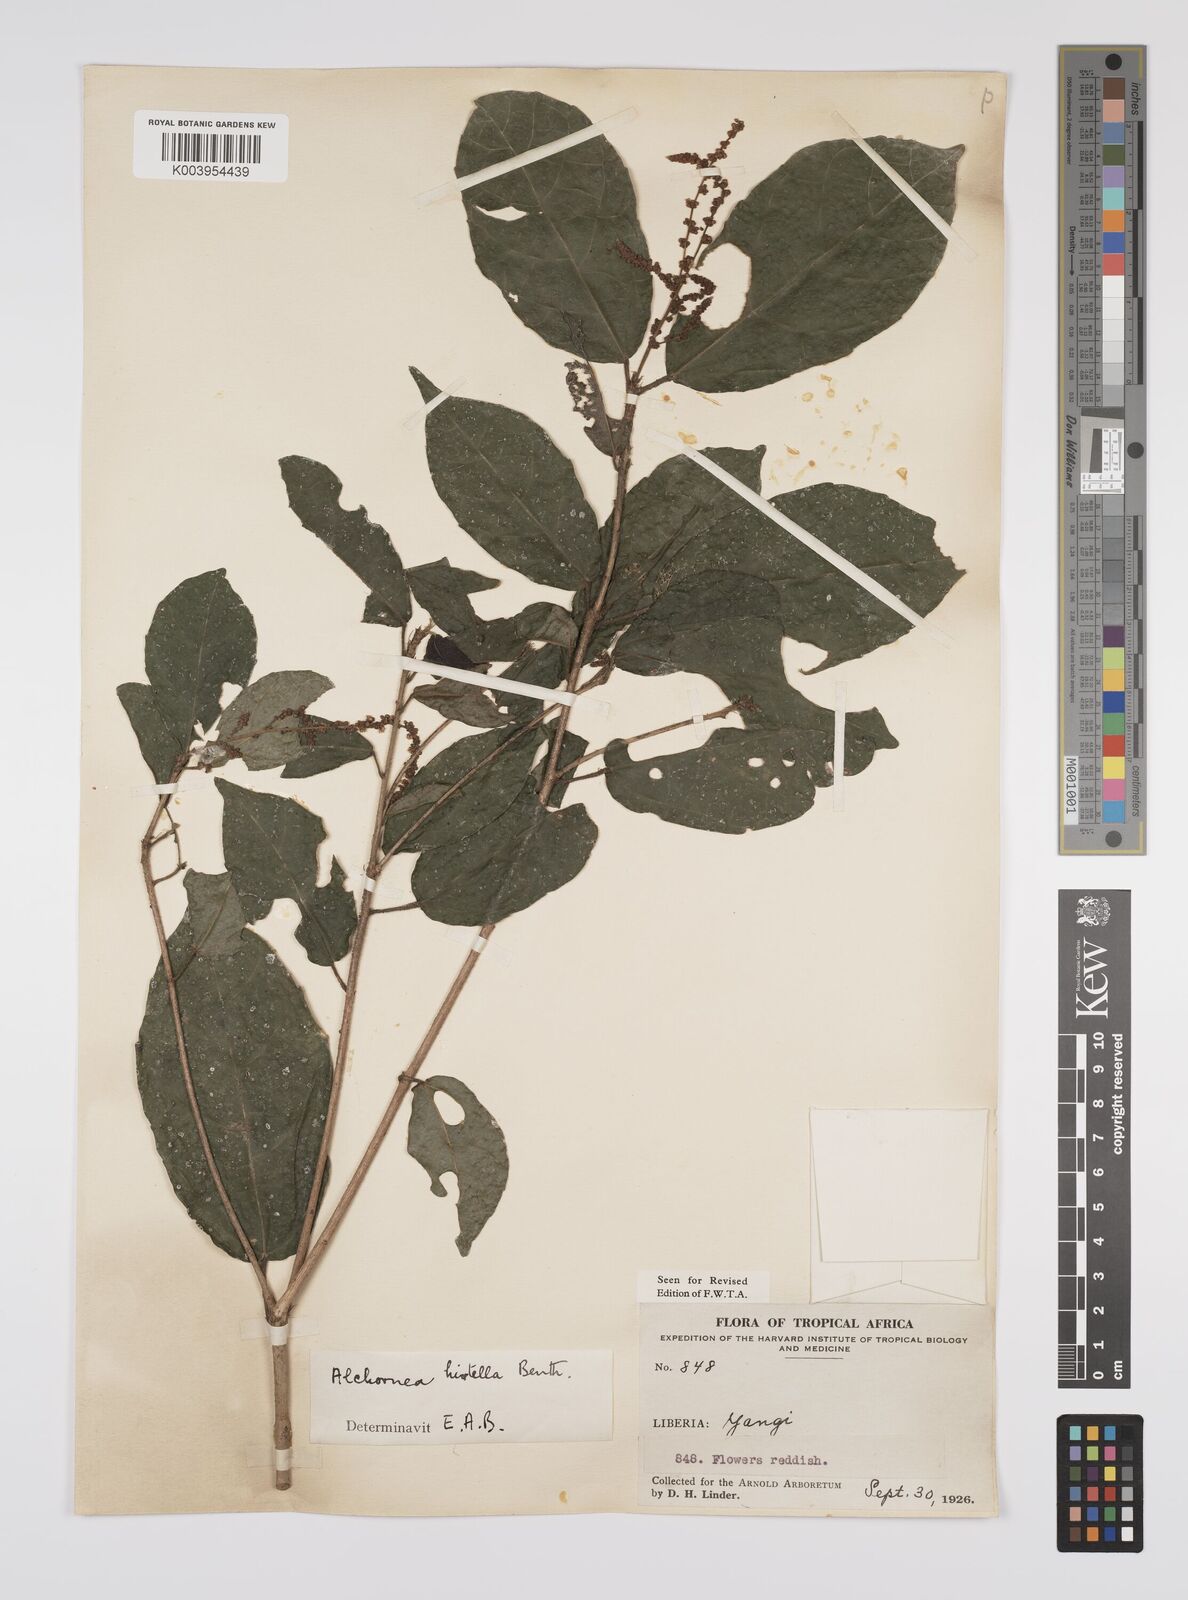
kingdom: Plantae
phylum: Tracheophyta
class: Magnoliopsida
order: Malpighiales
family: Euphorbiaceae
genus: Alchornea
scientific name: Alchornea hirtella
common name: Forest bead-string
